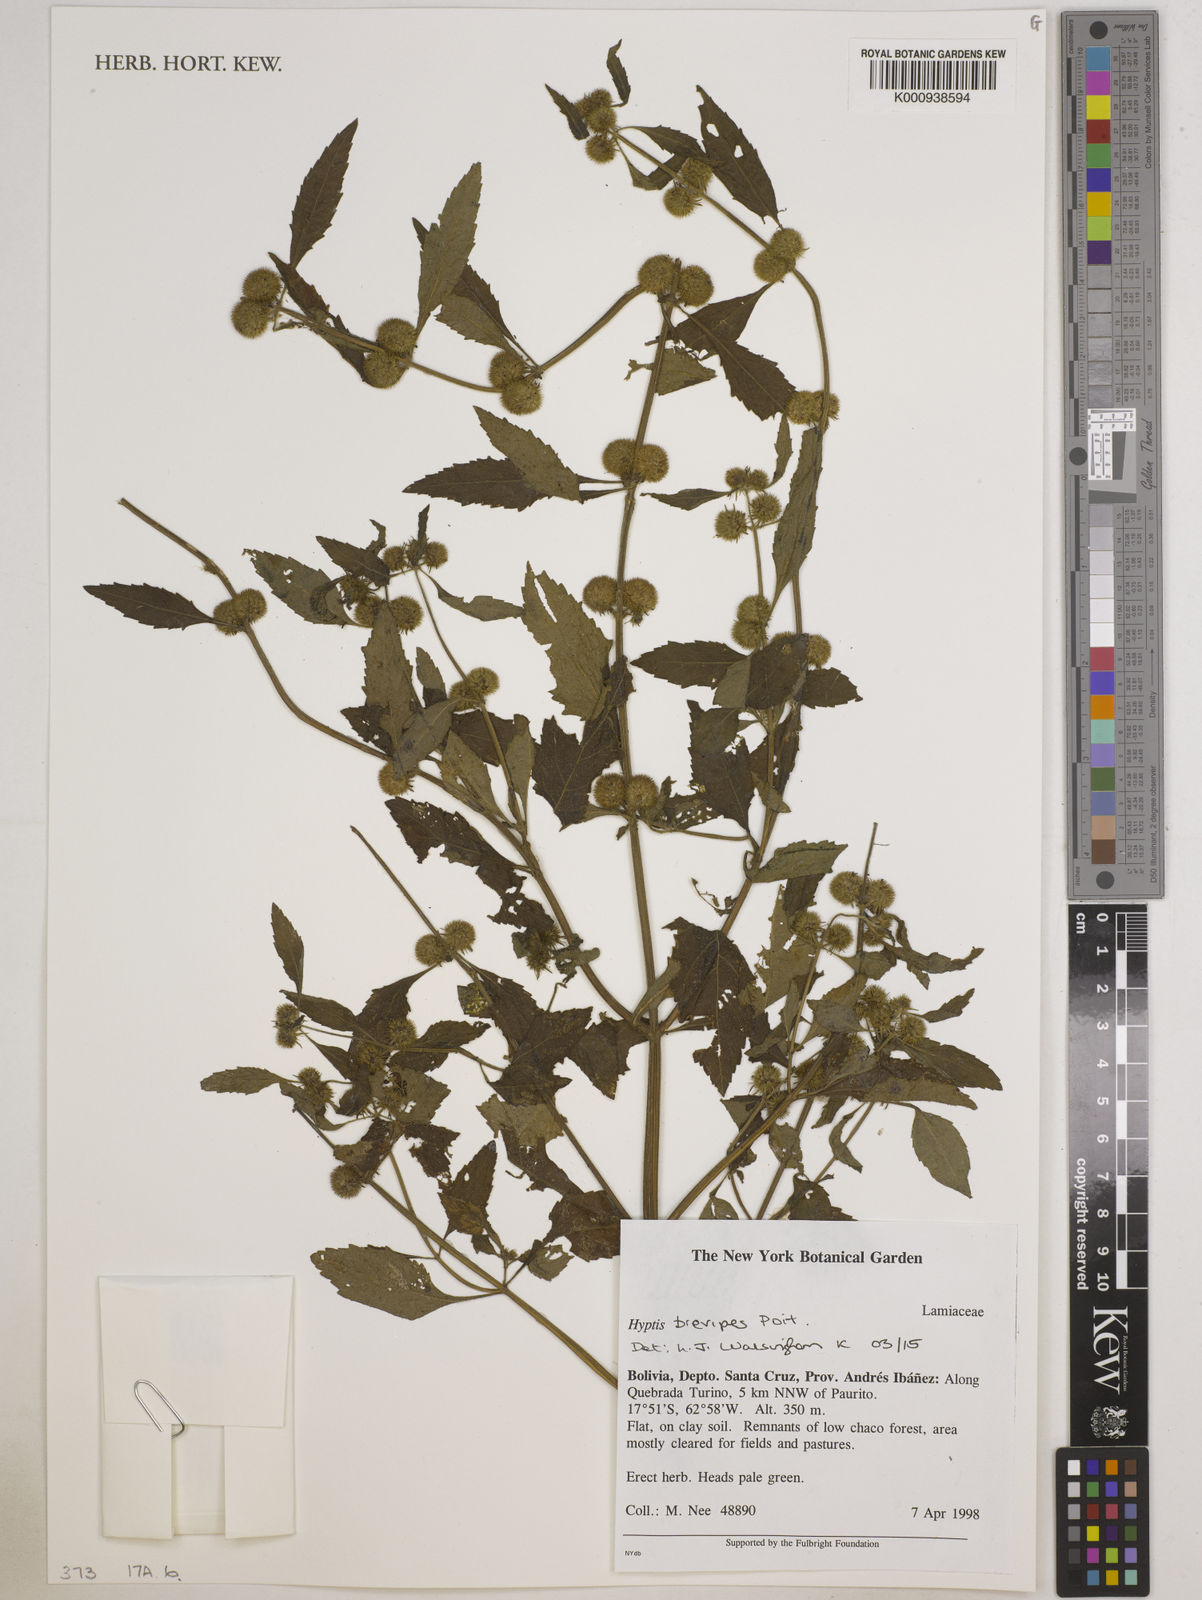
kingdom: Plantae
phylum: Tracheophyta
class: Magnoliopsida
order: Lamiales
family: Lamiaceae
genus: Hyptis
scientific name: Hyptis brevipes
